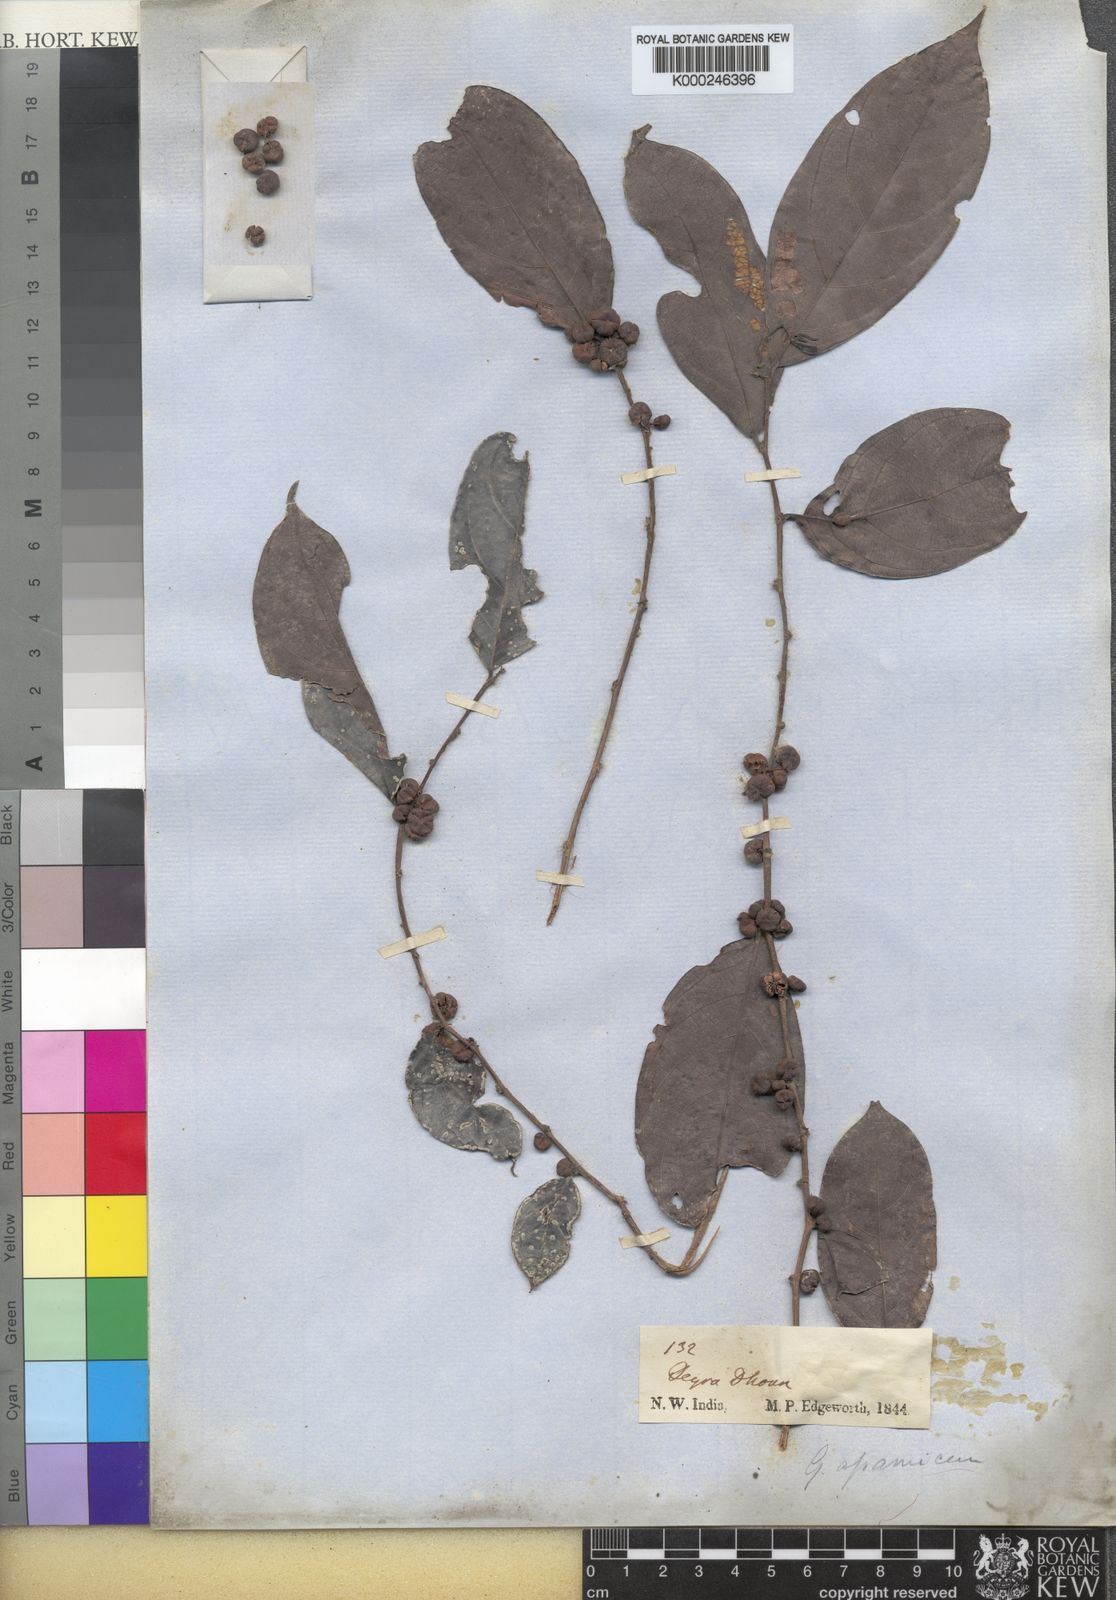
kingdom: Plantae
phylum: Tracheophyta
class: Magnoliopsida
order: Malpighiales
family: Phyllanthaceae
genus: Glochidion
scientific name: Glochidion
